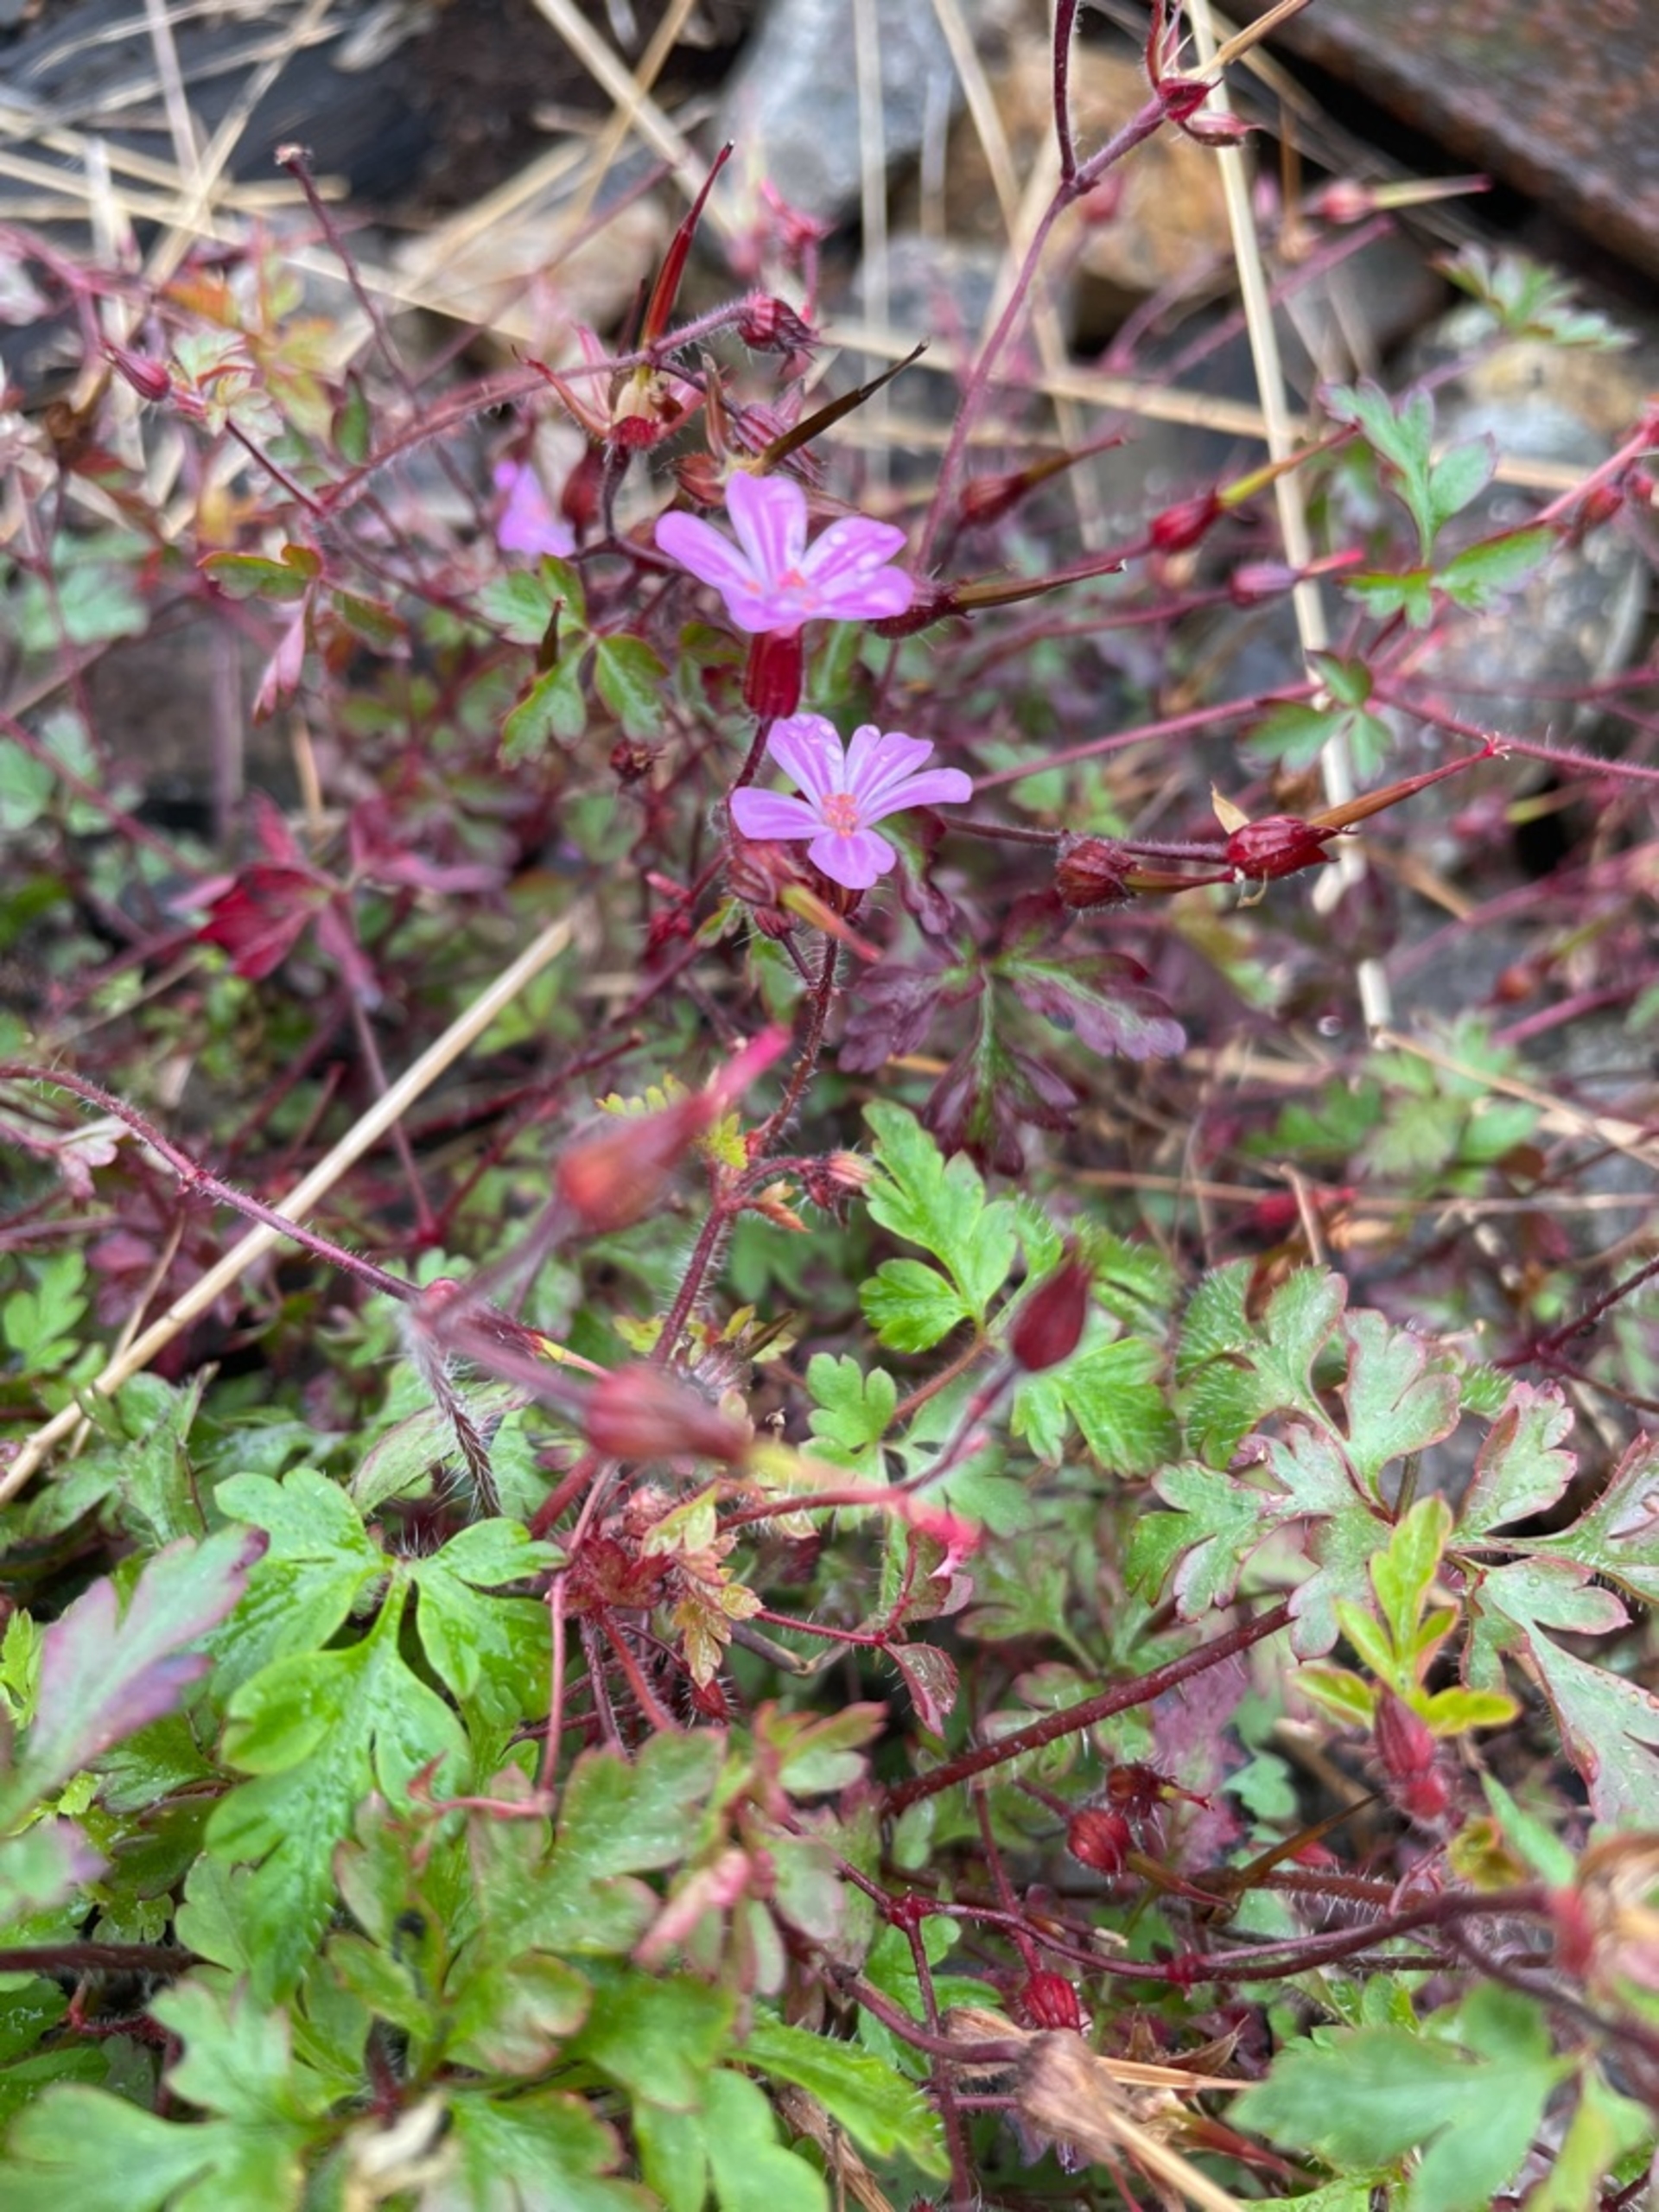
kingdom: Plantae
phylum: Tracheophyta
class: Magnoliopsida
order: Geraniales
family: Geraniaceae
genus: Geranium
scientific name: Geranium robertianum
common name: Stinkende storkenæb
